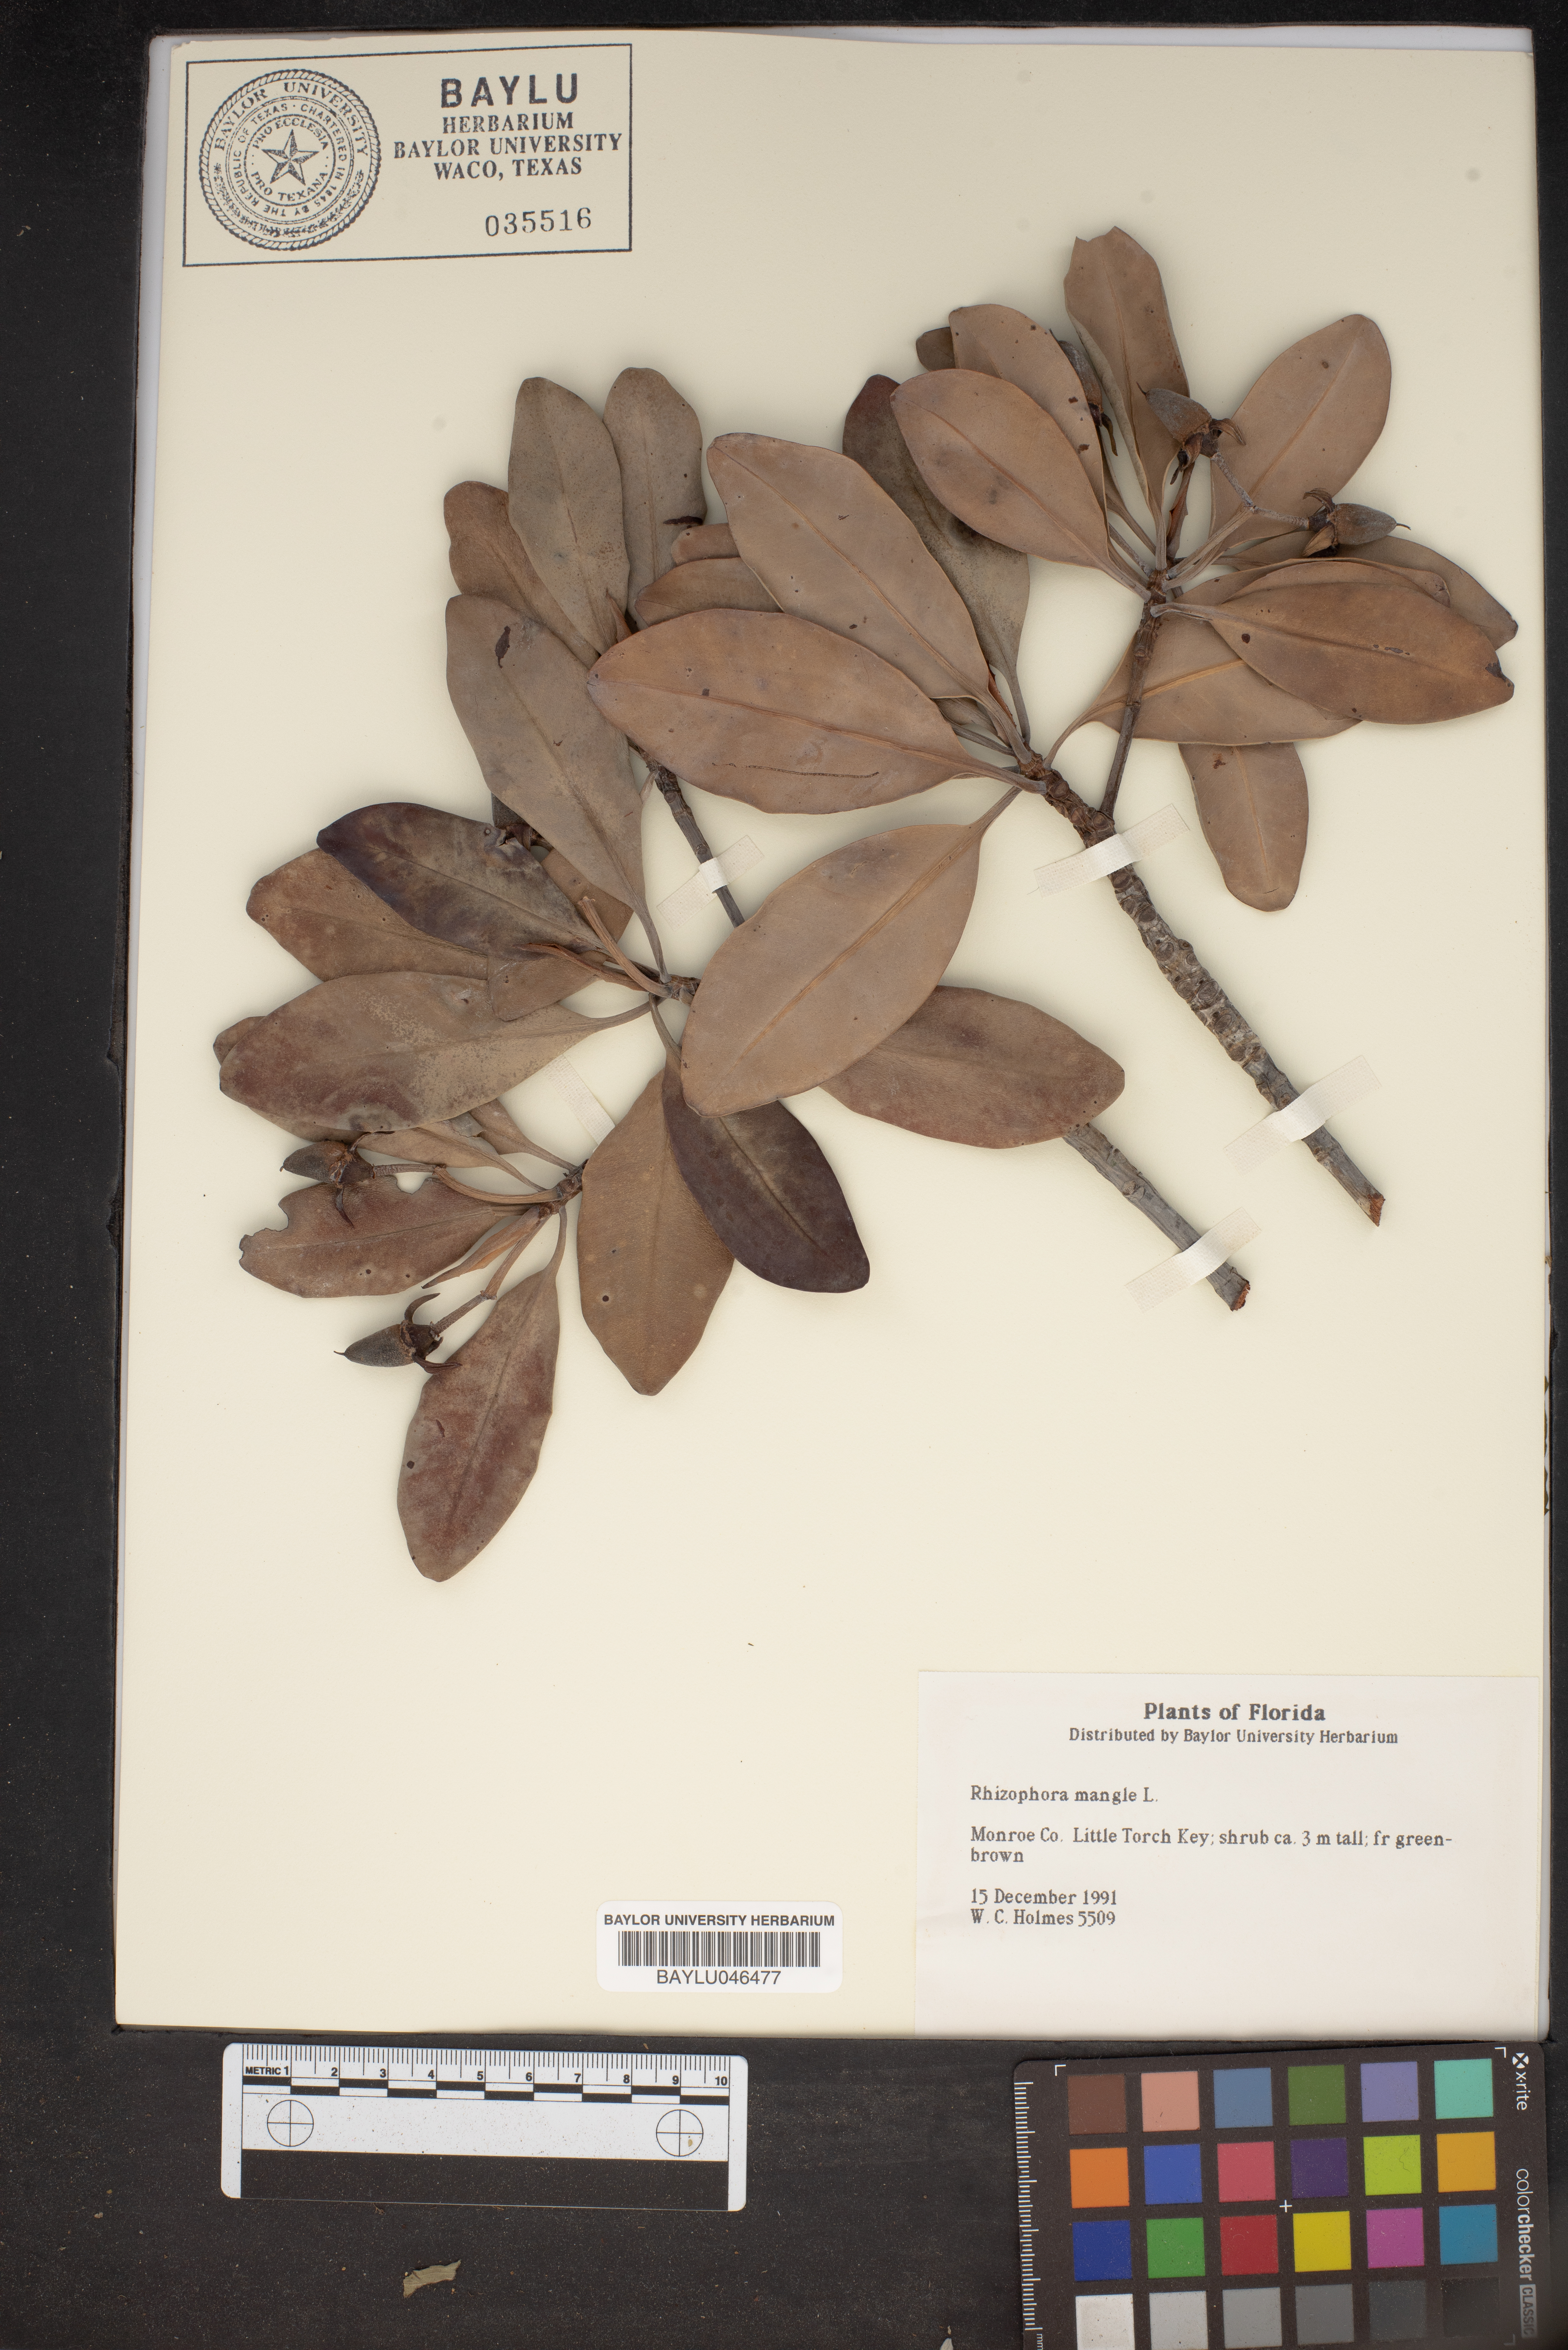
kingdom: Plantae
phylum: Tracheophyta
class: Magnoliopsida
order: Malpighiales
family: Rhizophoraceae
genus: Rhizophora
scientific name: Rhizophora mucronata
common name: Loop-root mangrove
